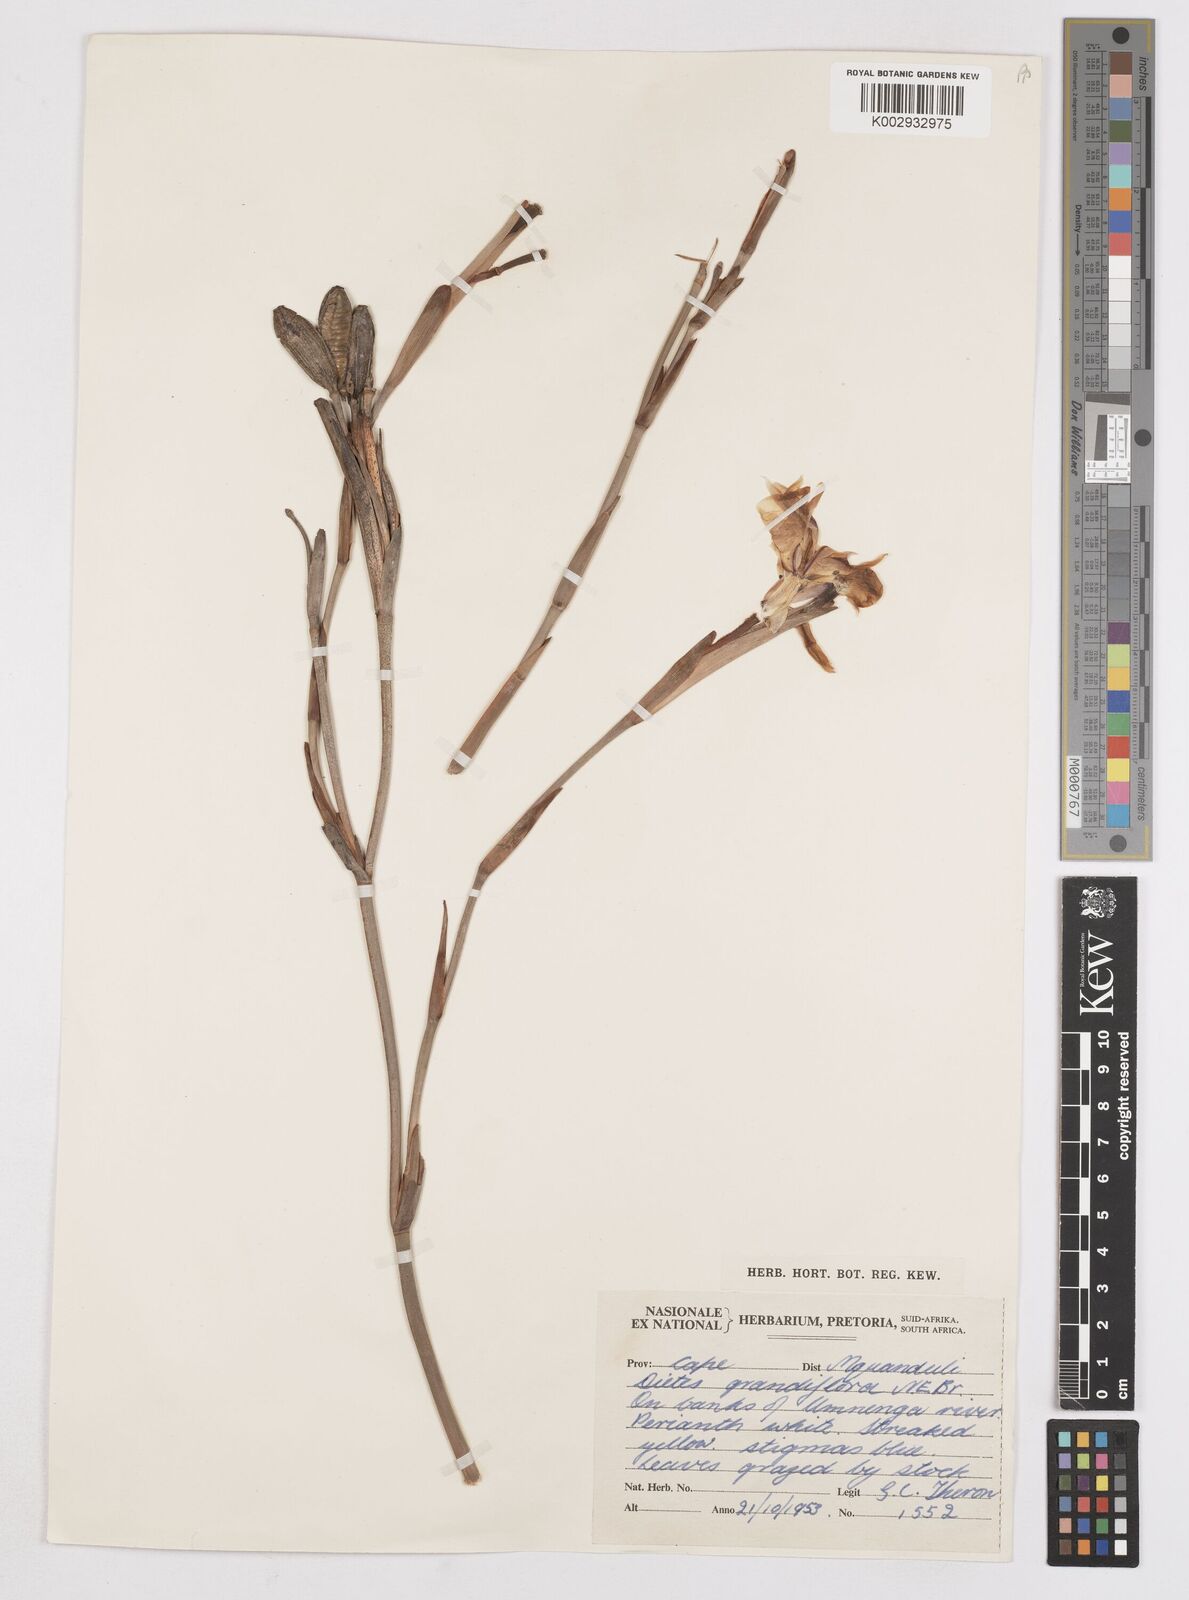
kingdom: Plantae
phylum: Tracheophyta
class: Liliopsida
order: Asparagales
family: Iridaceae
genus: Dietes
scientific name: Dietes grandiflora
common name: Wild iris
